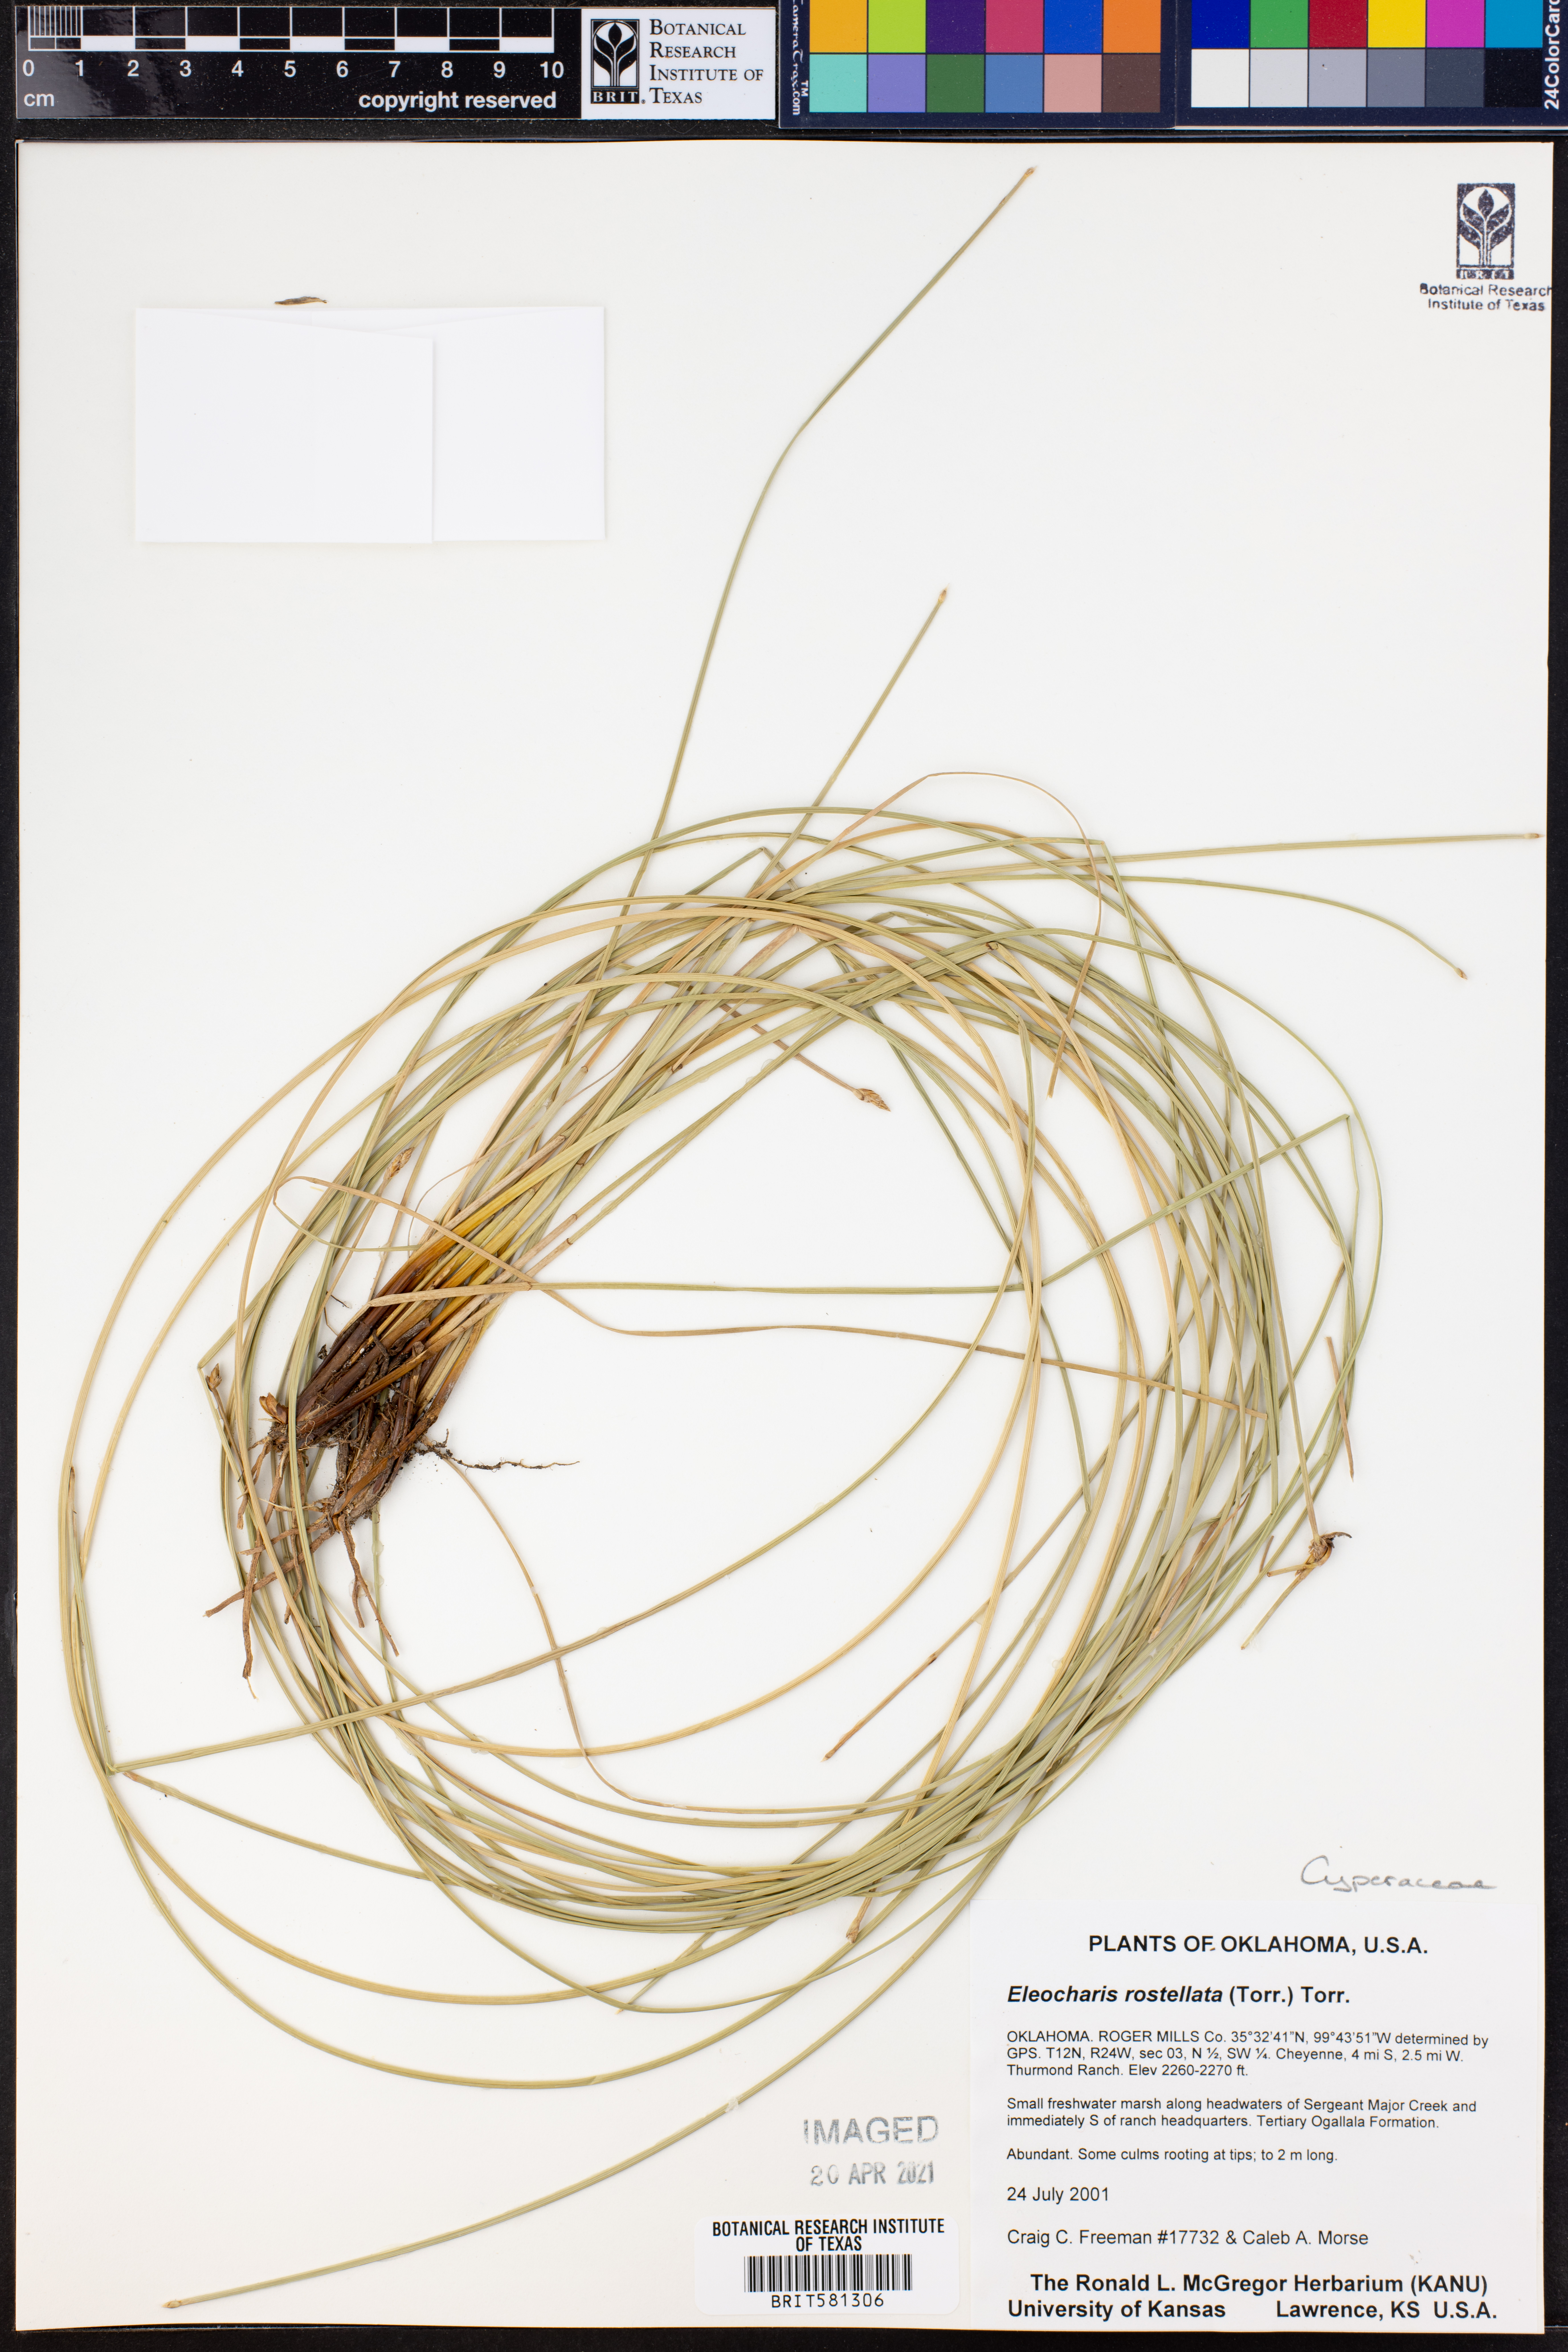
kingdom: Plantae
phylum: Tracheophyta
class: Liliopsida
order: Poales
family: Cyperaceae
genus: Eleocharis
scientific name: Eleocharis rostellata
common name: Walking sedge
